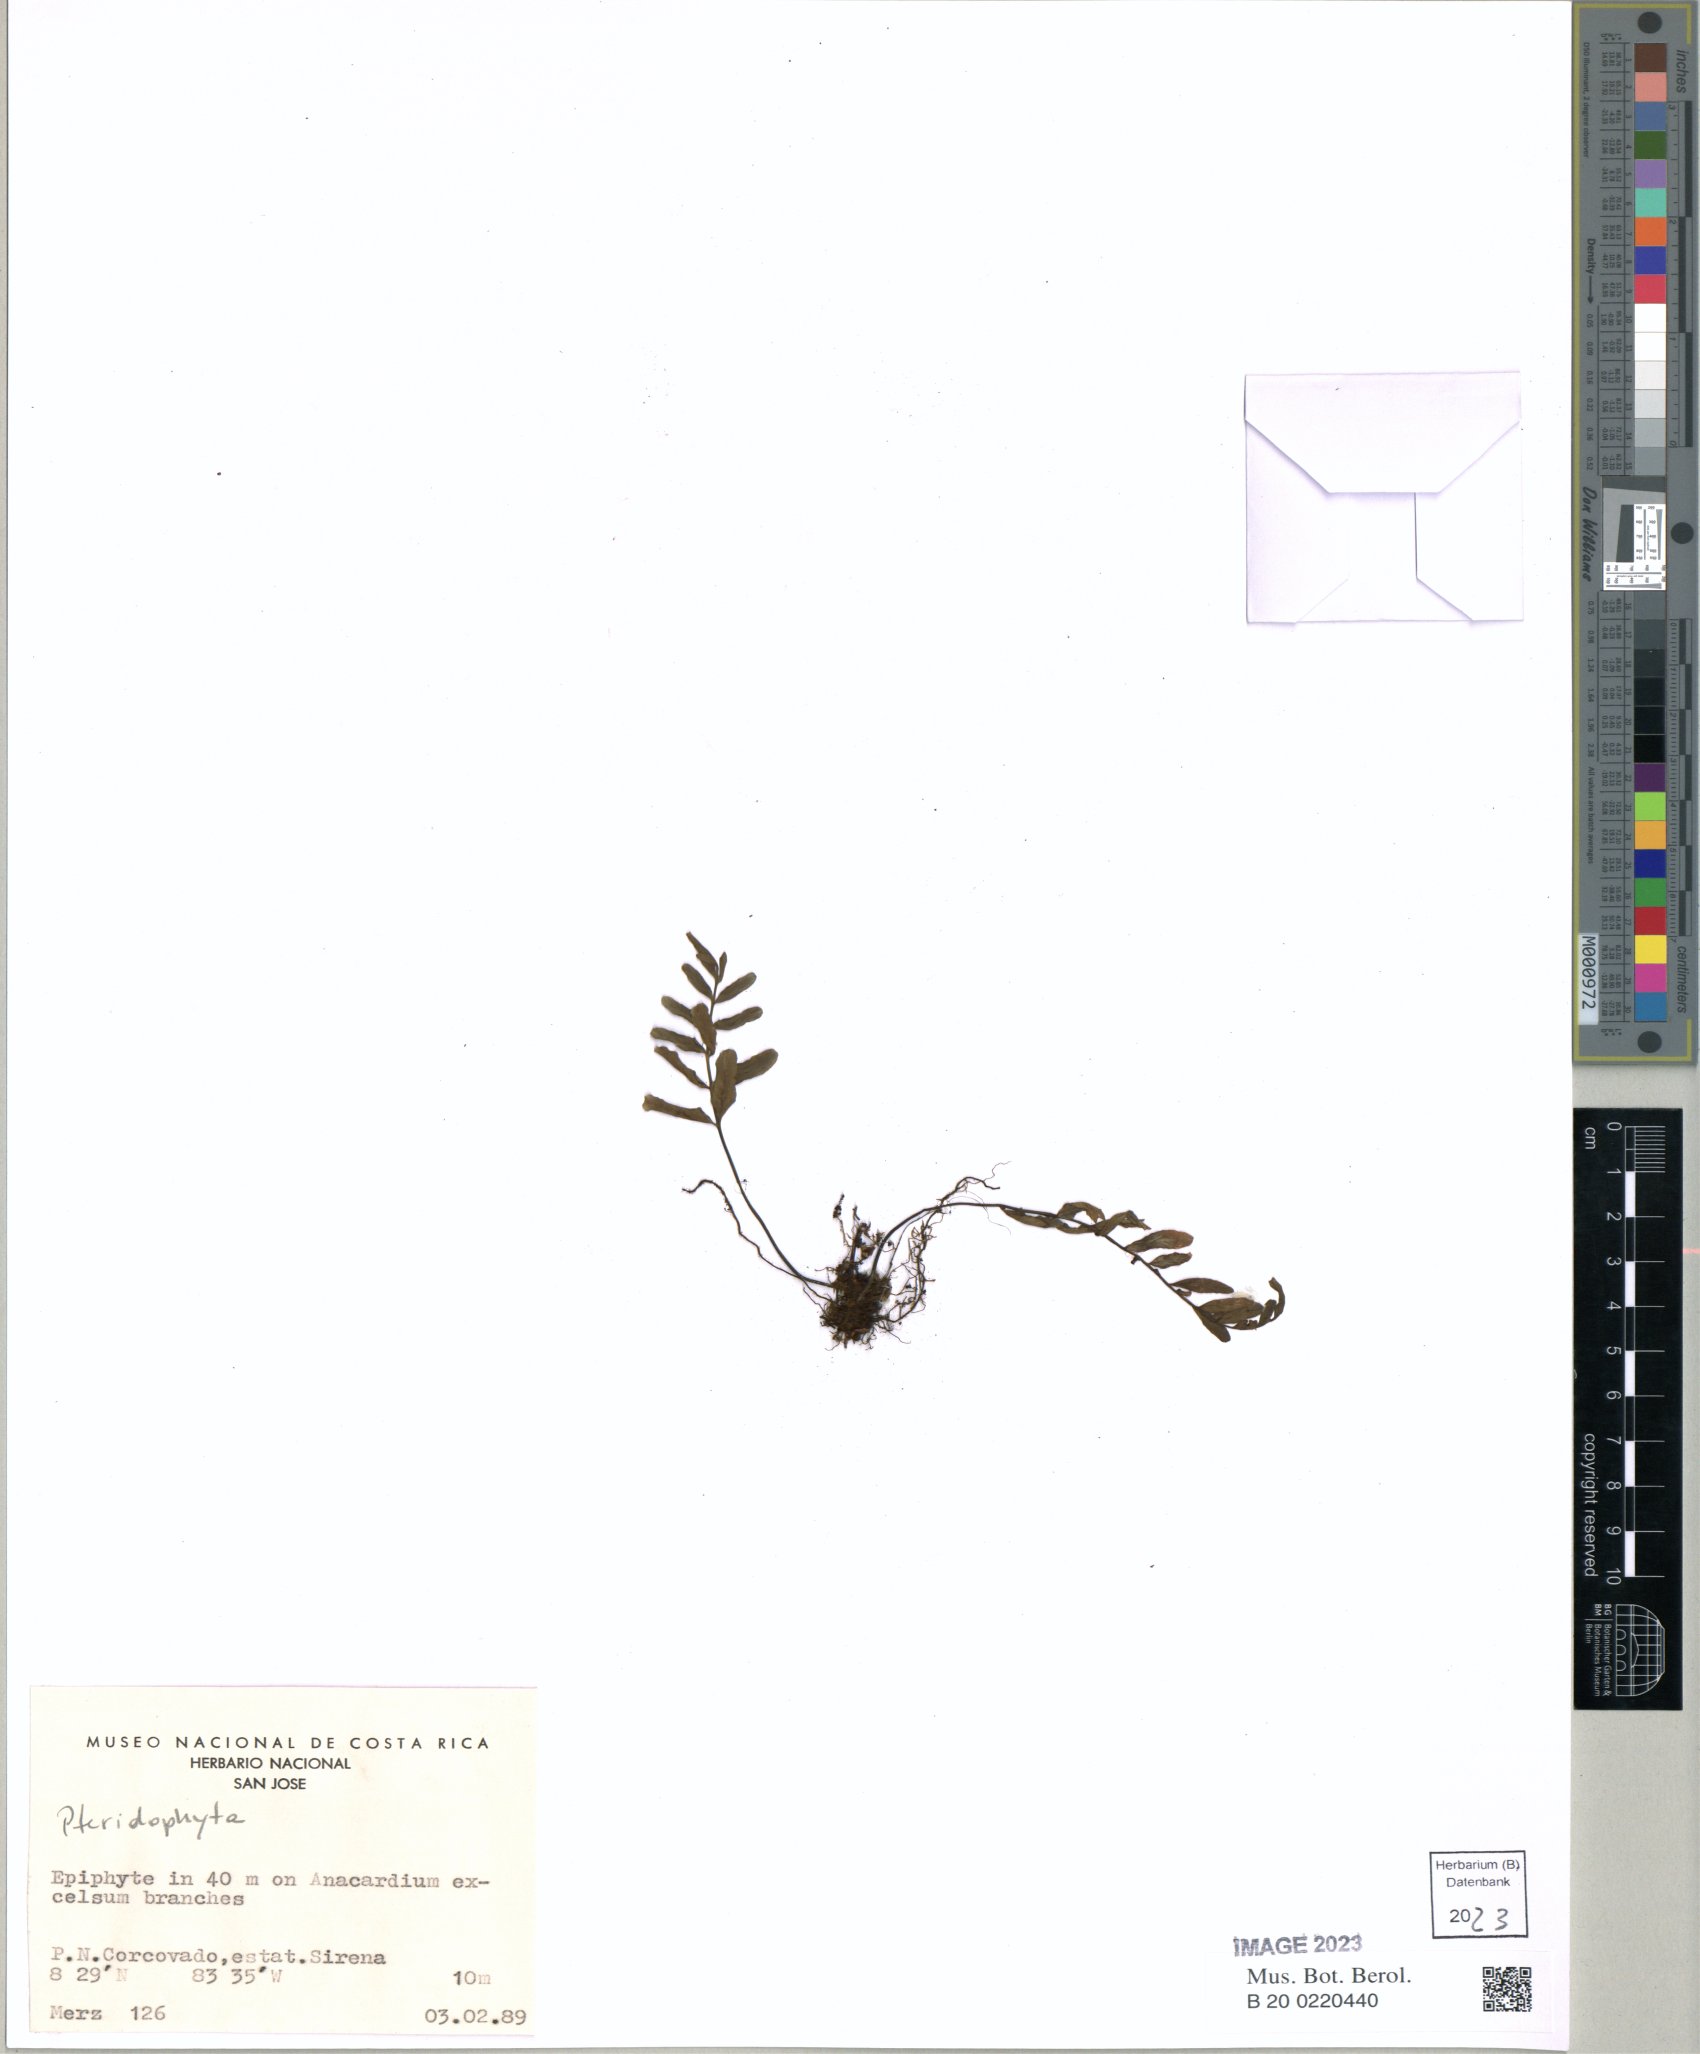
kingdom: Plantae
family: Pteridophyta
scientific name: Pteridophyta
